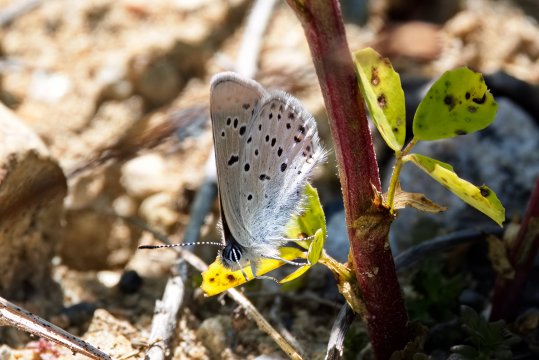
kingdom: Animalia
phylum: Arthropoda
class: Insecta
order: Lepidoptera
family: Lycaenidae
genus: Plebejus
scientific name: Plebejus saepiolus
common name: Greenish Blue
